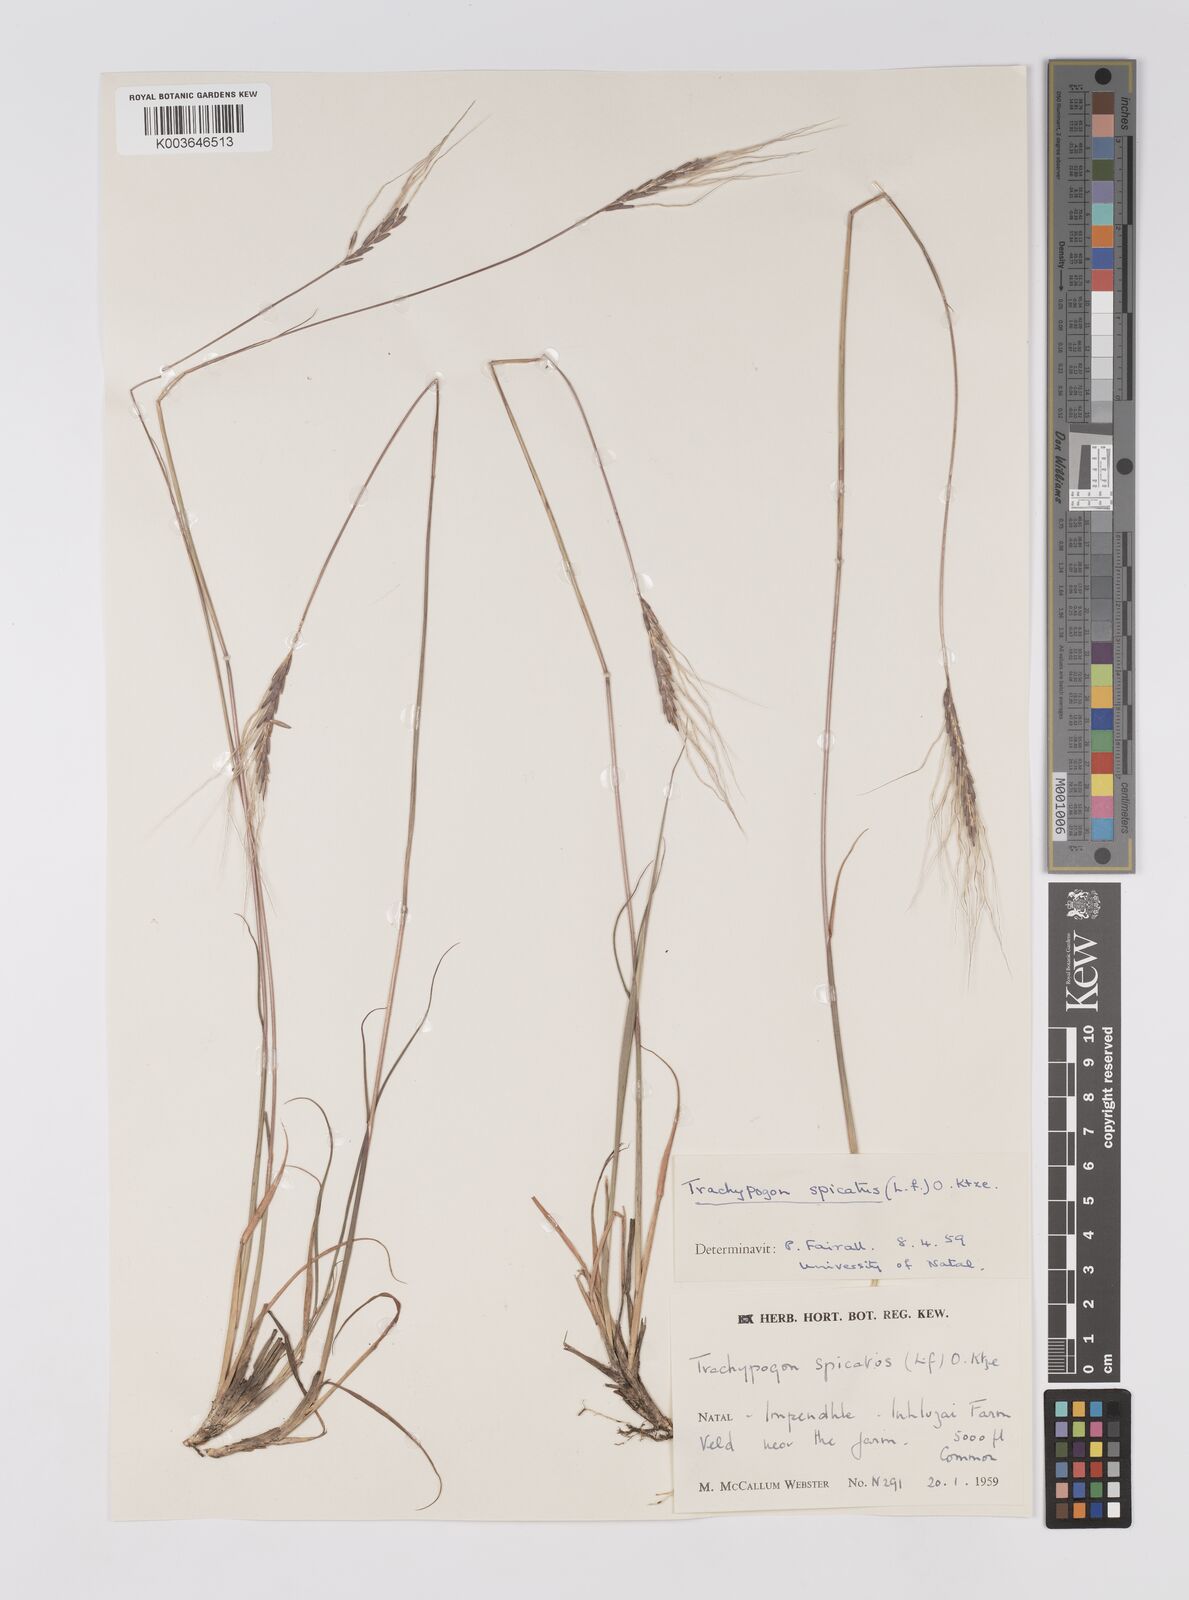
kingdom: Plantae
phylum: Tracheophyta
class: Liliopsida
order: Poales
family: Poaceae
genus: Trachypogon
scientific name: Trachypogon spicatus
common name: Crinkle-awn
